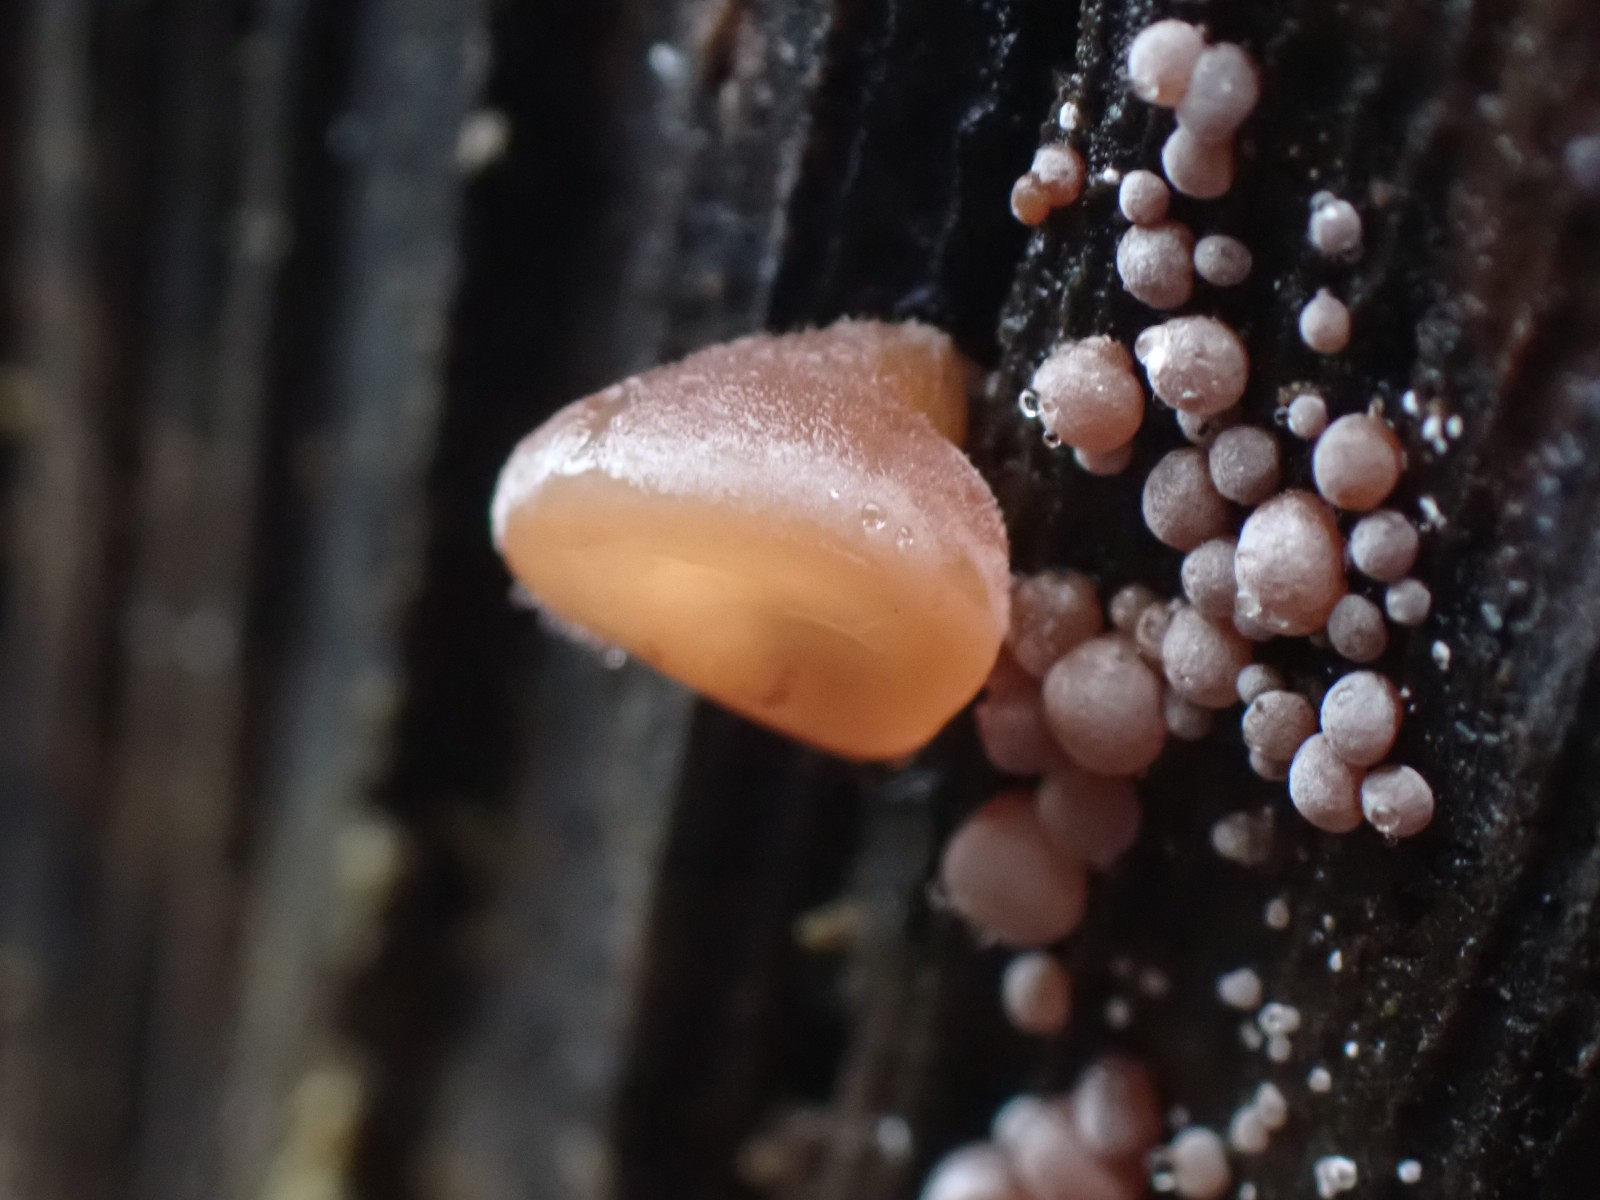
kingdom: Fungi
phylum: Basidiomycota
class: Agaricomycetes
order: Auriculariales
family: Auriculariaceae
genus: Auricularia
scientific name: Auricularia auricula-judae
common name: almindelig judasøre
